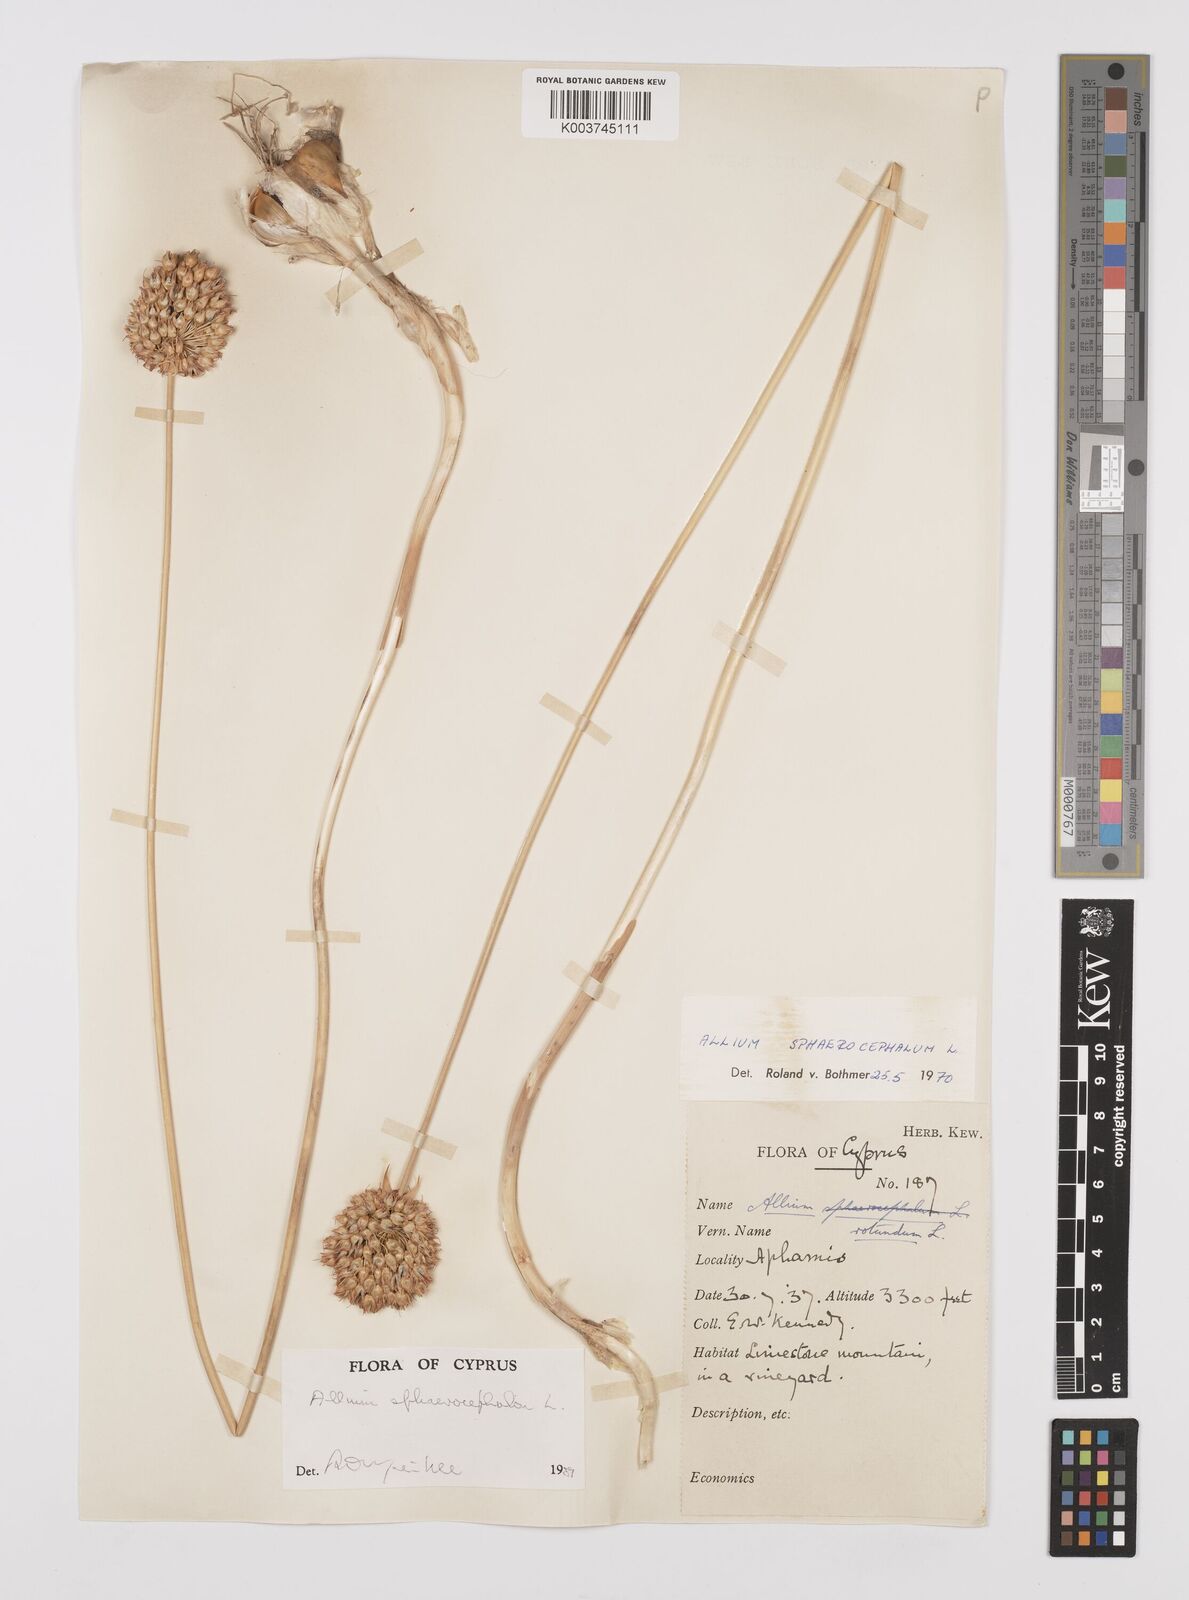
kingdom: Plantae
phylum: Tracheophyta
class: Liliopsida
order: Asparagales
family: Amaryllidaceae
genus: Allium
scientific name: Allium vineale
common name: Crow garlic
